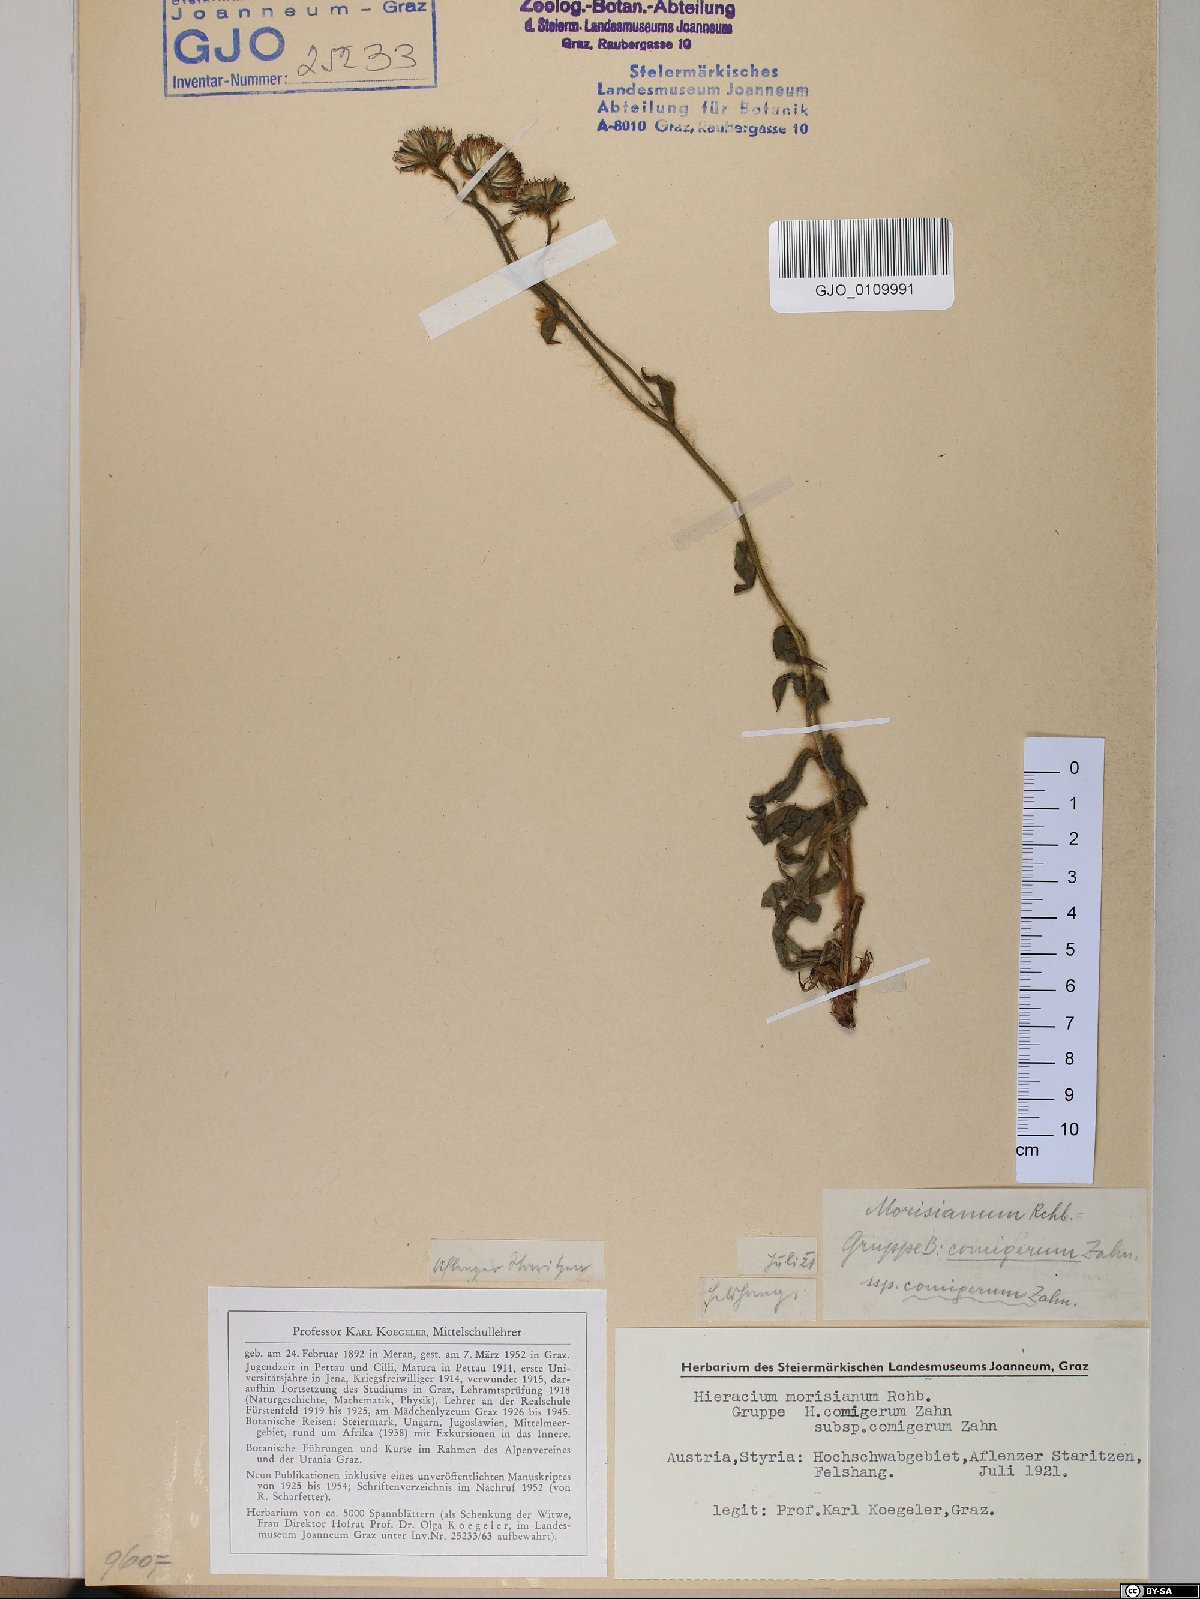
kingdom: Plantae
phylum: Tracheophyta
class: Magnoliopsida
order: Asterales
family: Asteraceae
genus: Hieracium
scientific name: Hieracium pilosum
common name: Fimbriate-pitted hawkweed
